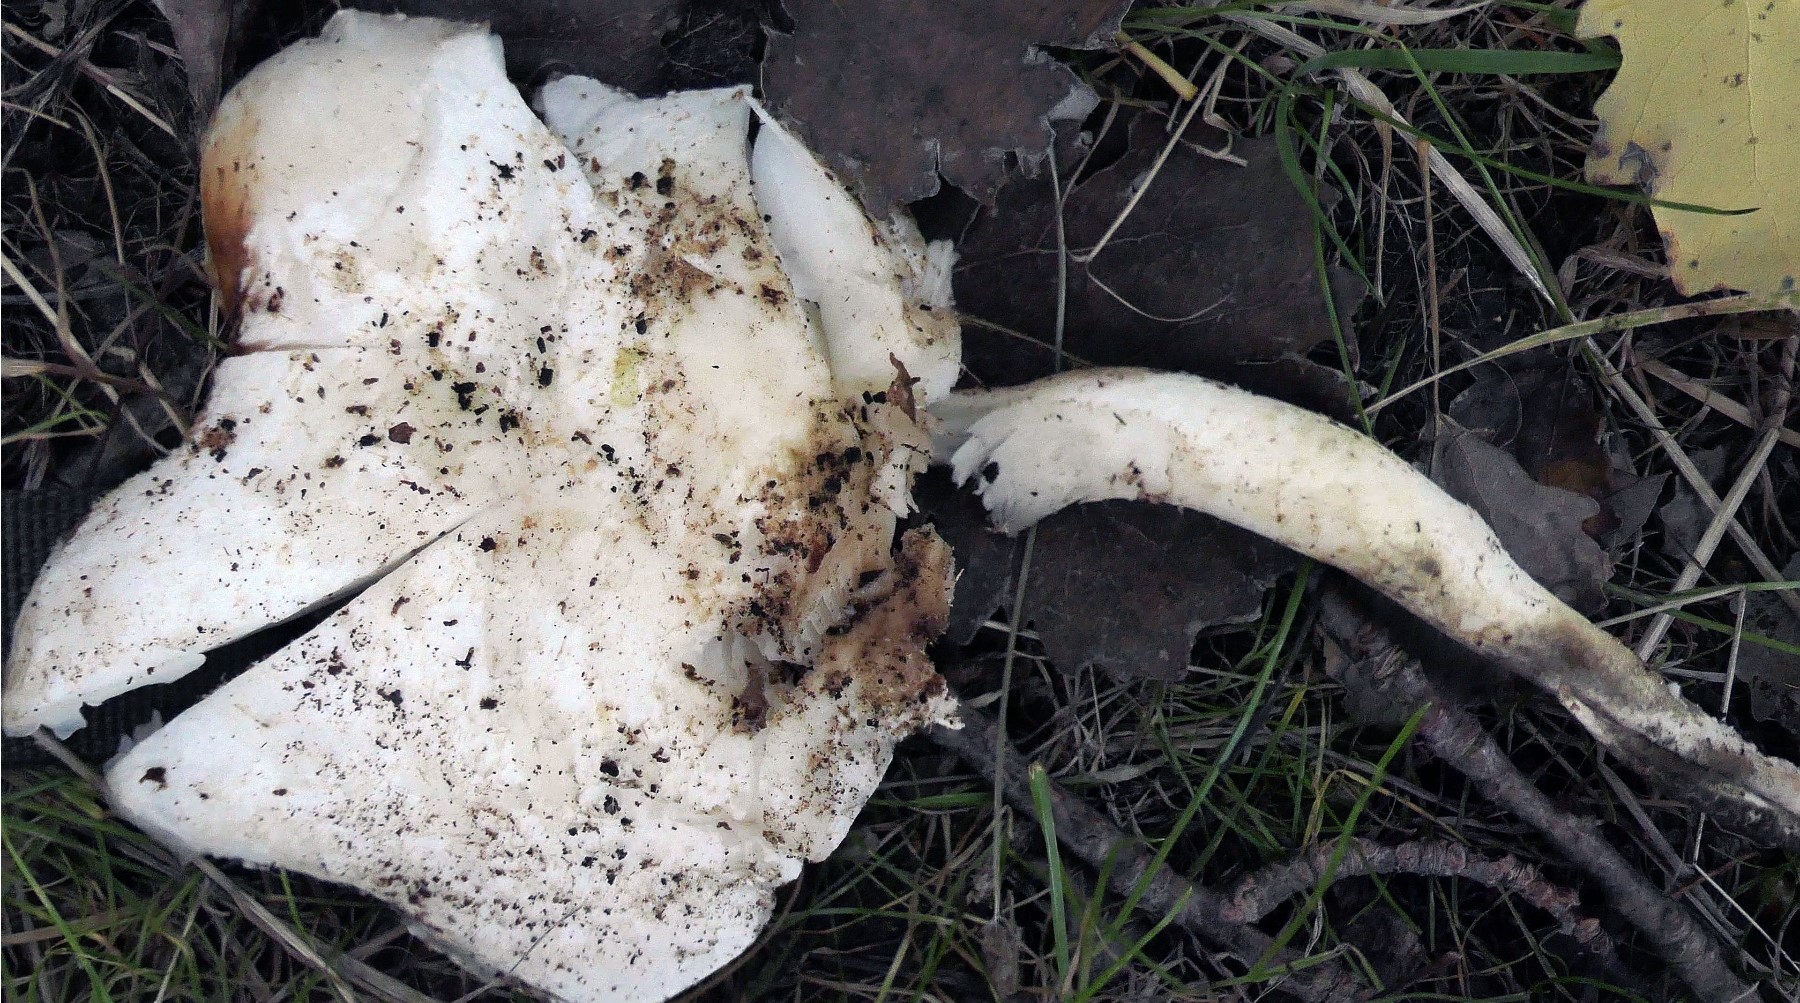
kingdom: Fungi
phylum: Basidiomycota
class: Agaricomycetes
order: Agaricales
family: Pleurotaceae
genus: Pleurotus
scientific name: Pleurotus dryinus
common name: korkagtig østershat
